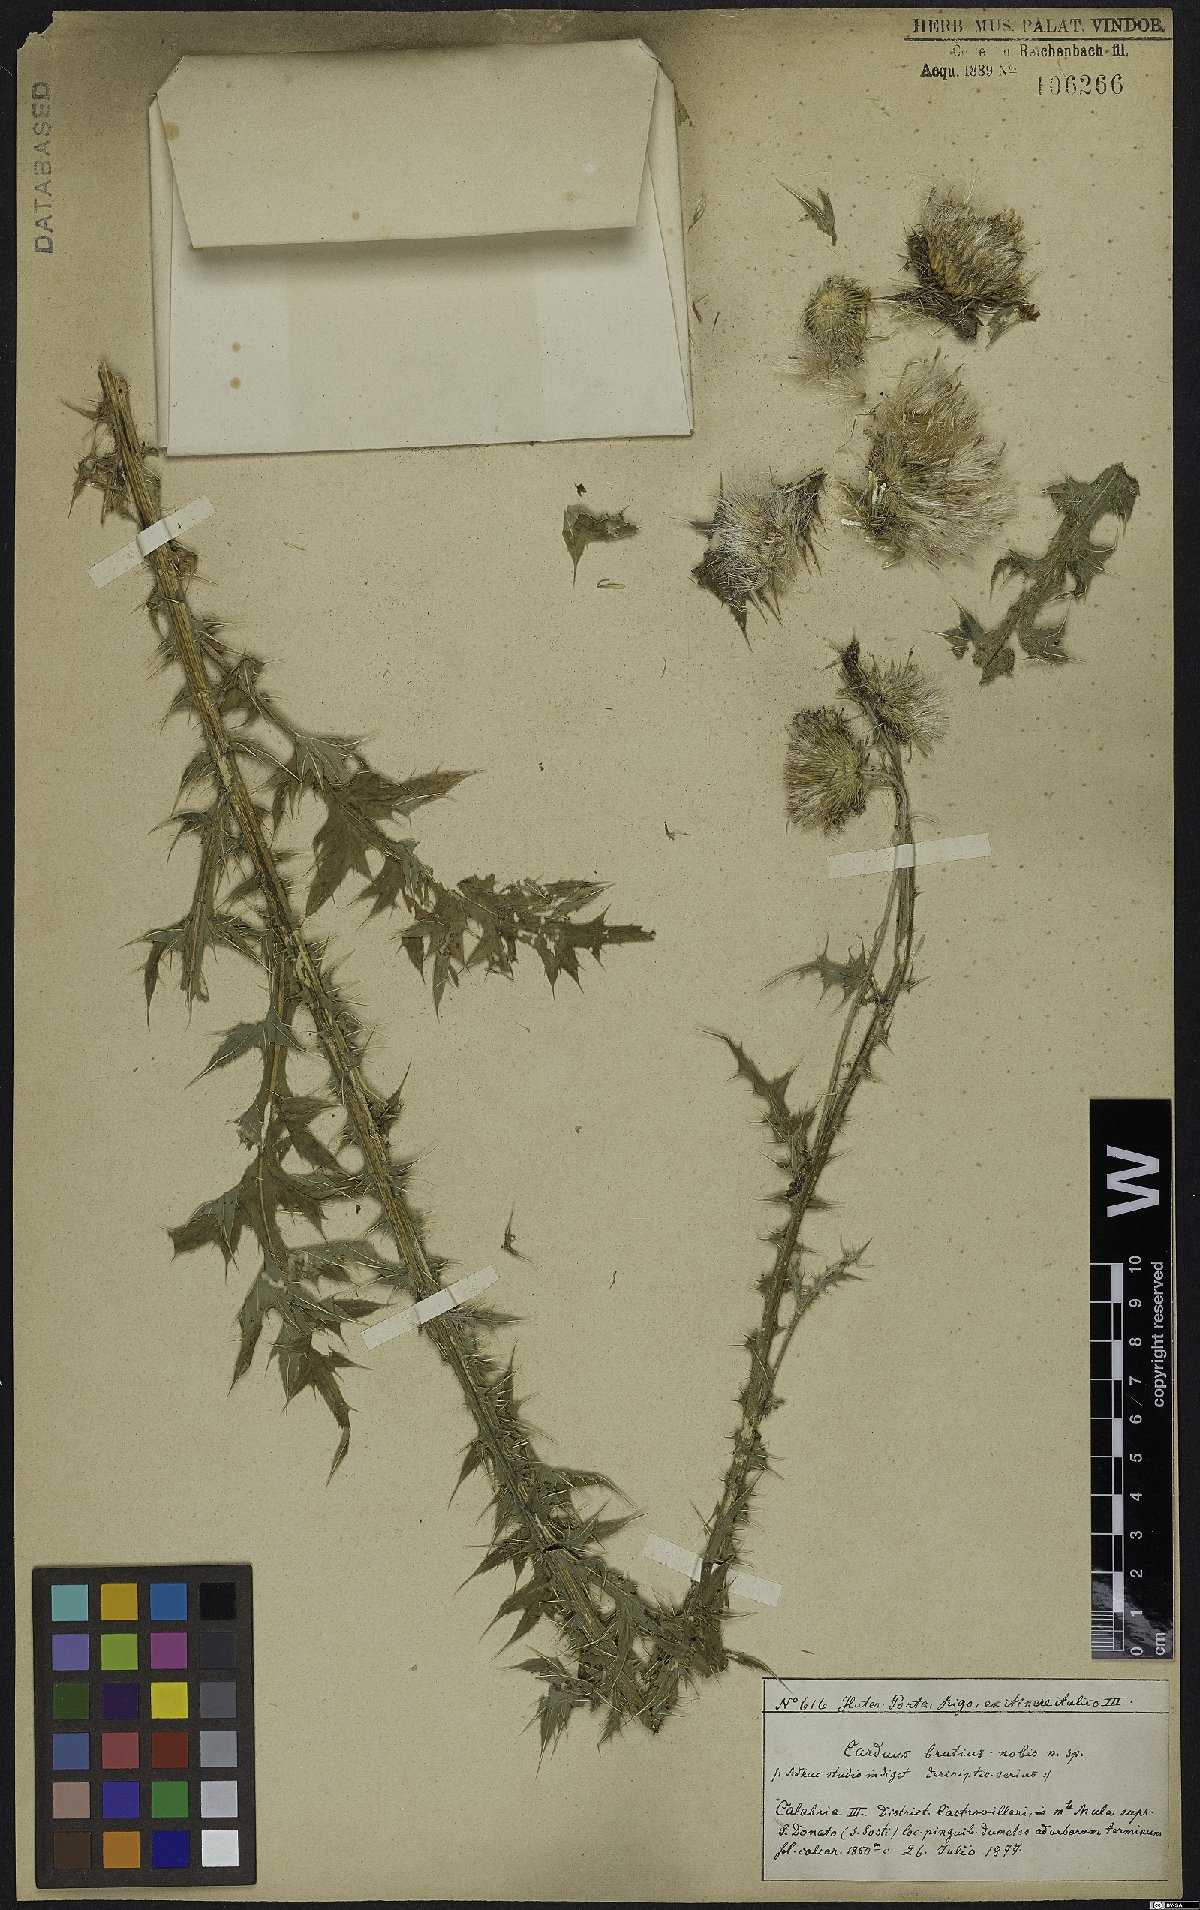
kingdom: Plantae
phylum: Tracheophyta
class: Magnoliopsida
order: Asterales
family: Asteraceae
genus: Carduus
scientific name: Carduus affinis
